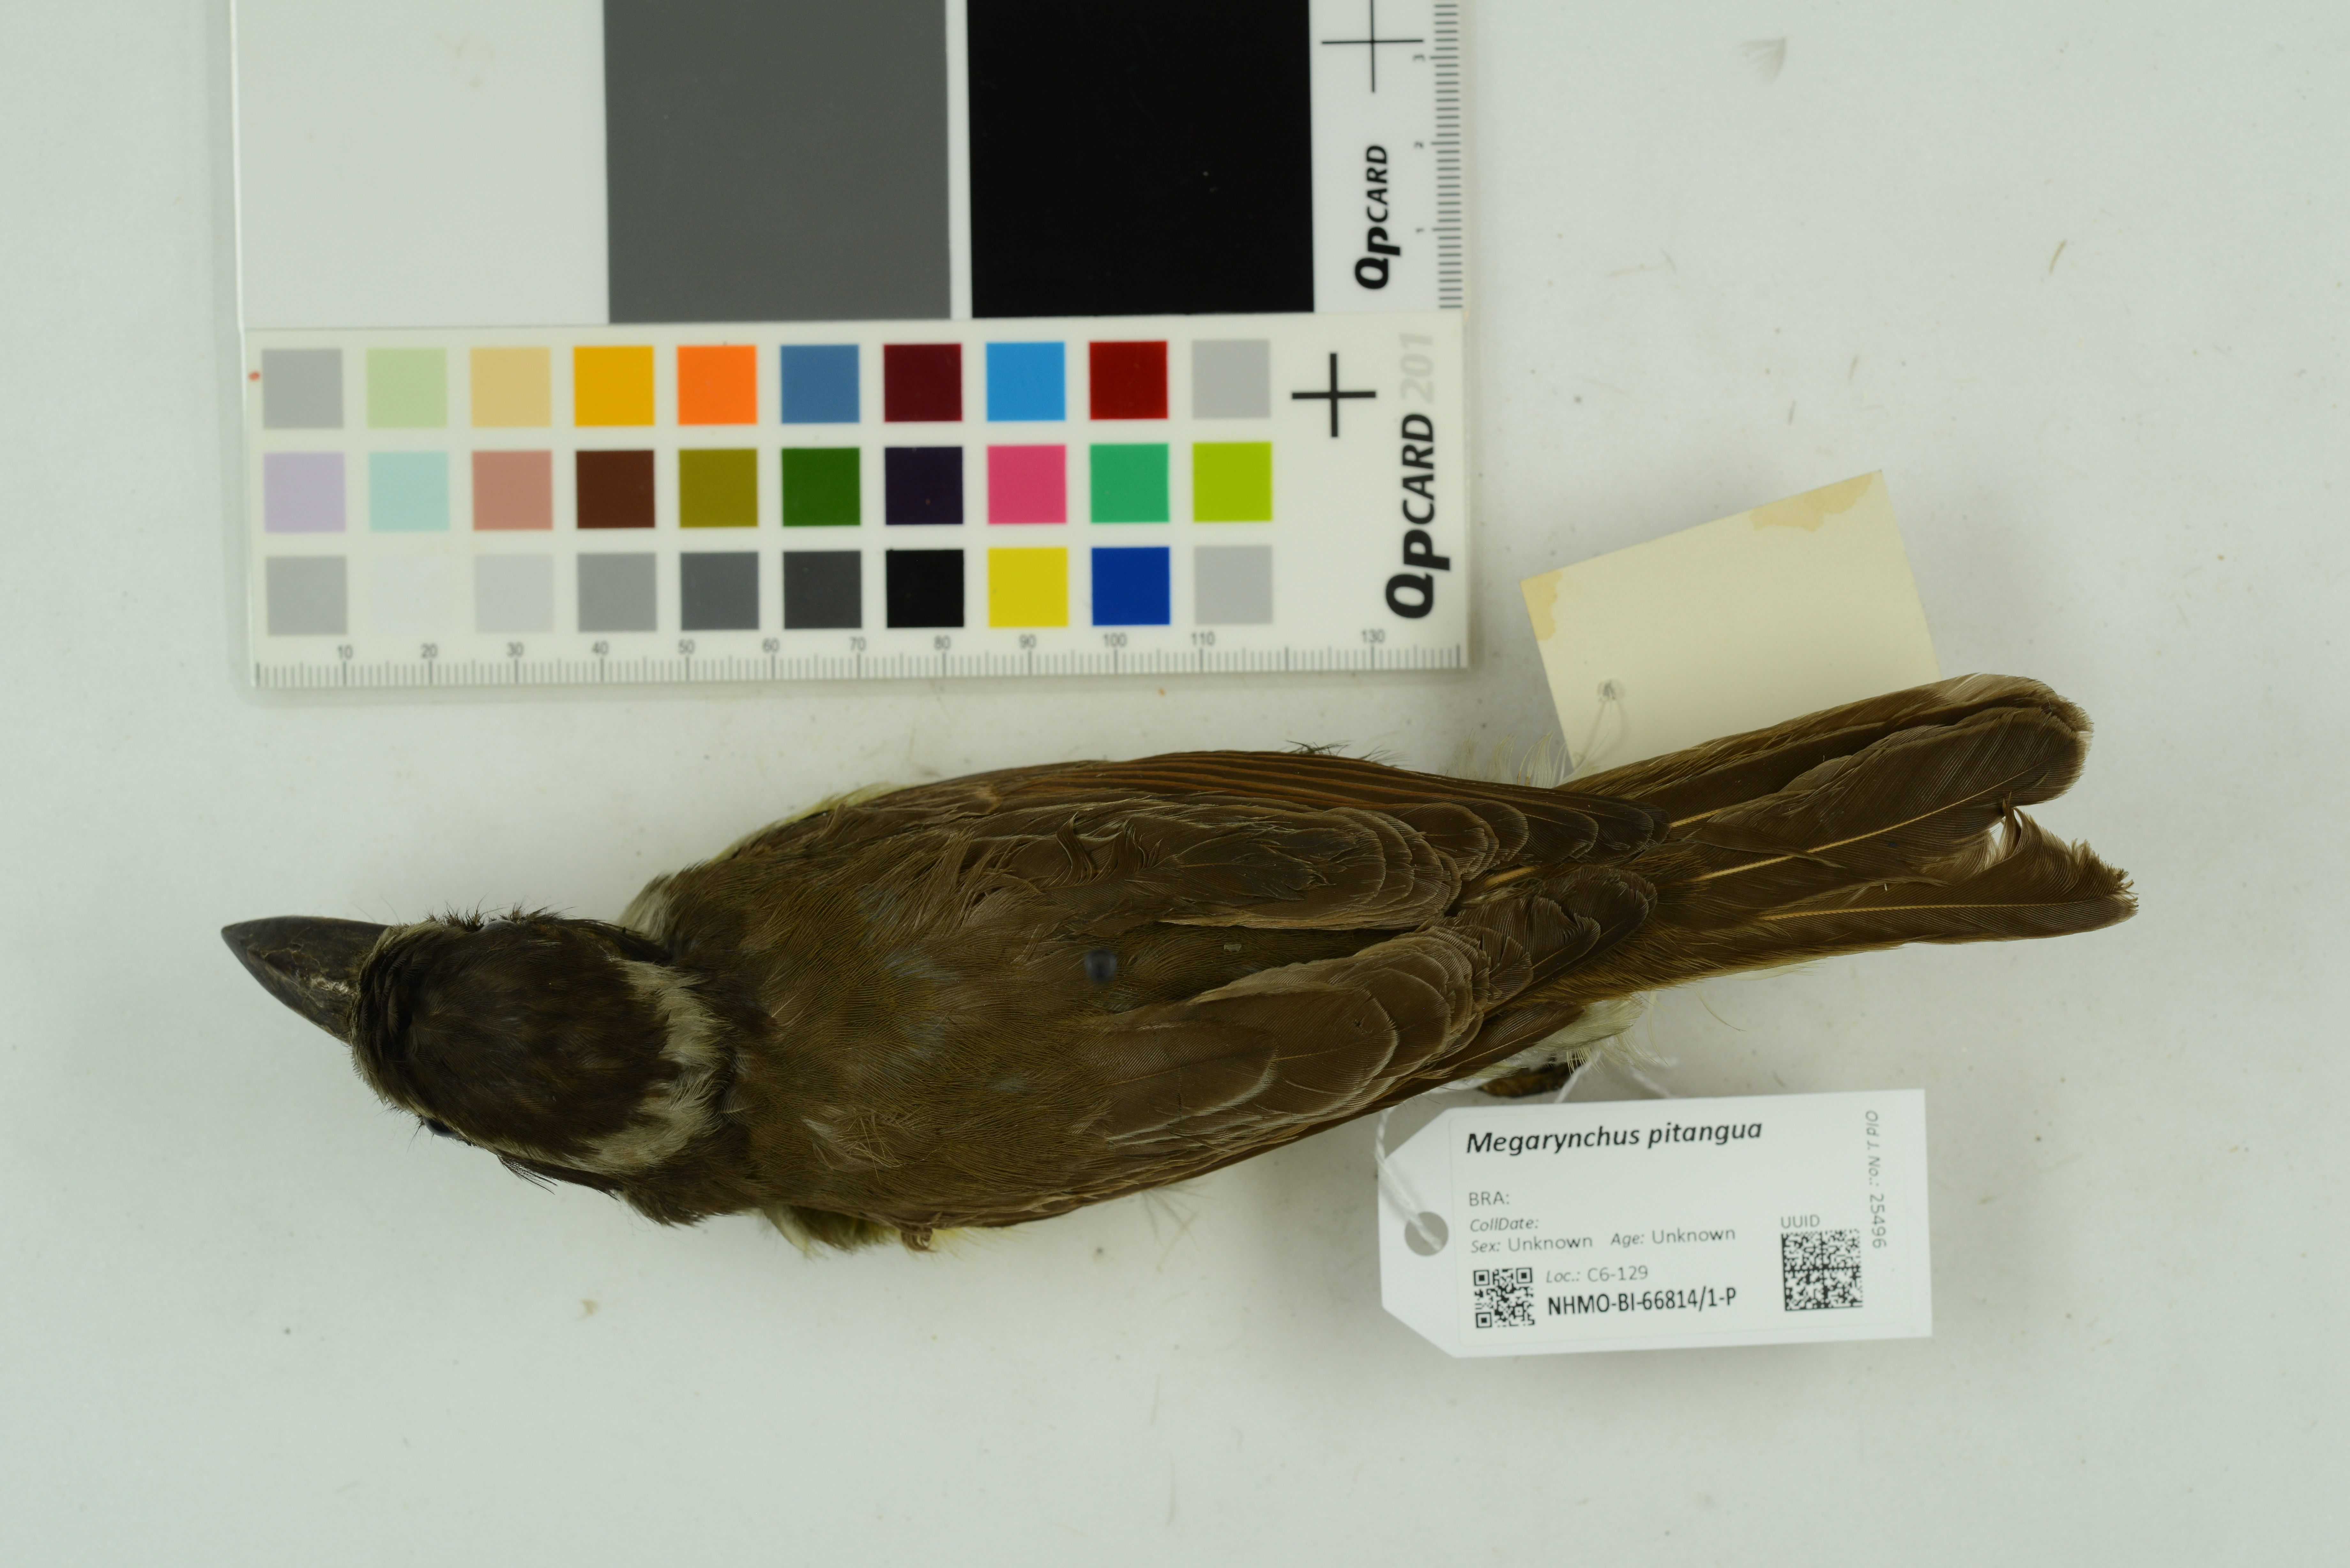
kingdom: Animalia
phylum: Chordata
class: Aves
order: Passeriformes
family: Tyrannidae
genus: Megarynchus
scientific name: Megarynchus pitangua
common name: Boat-billed flycatcher
